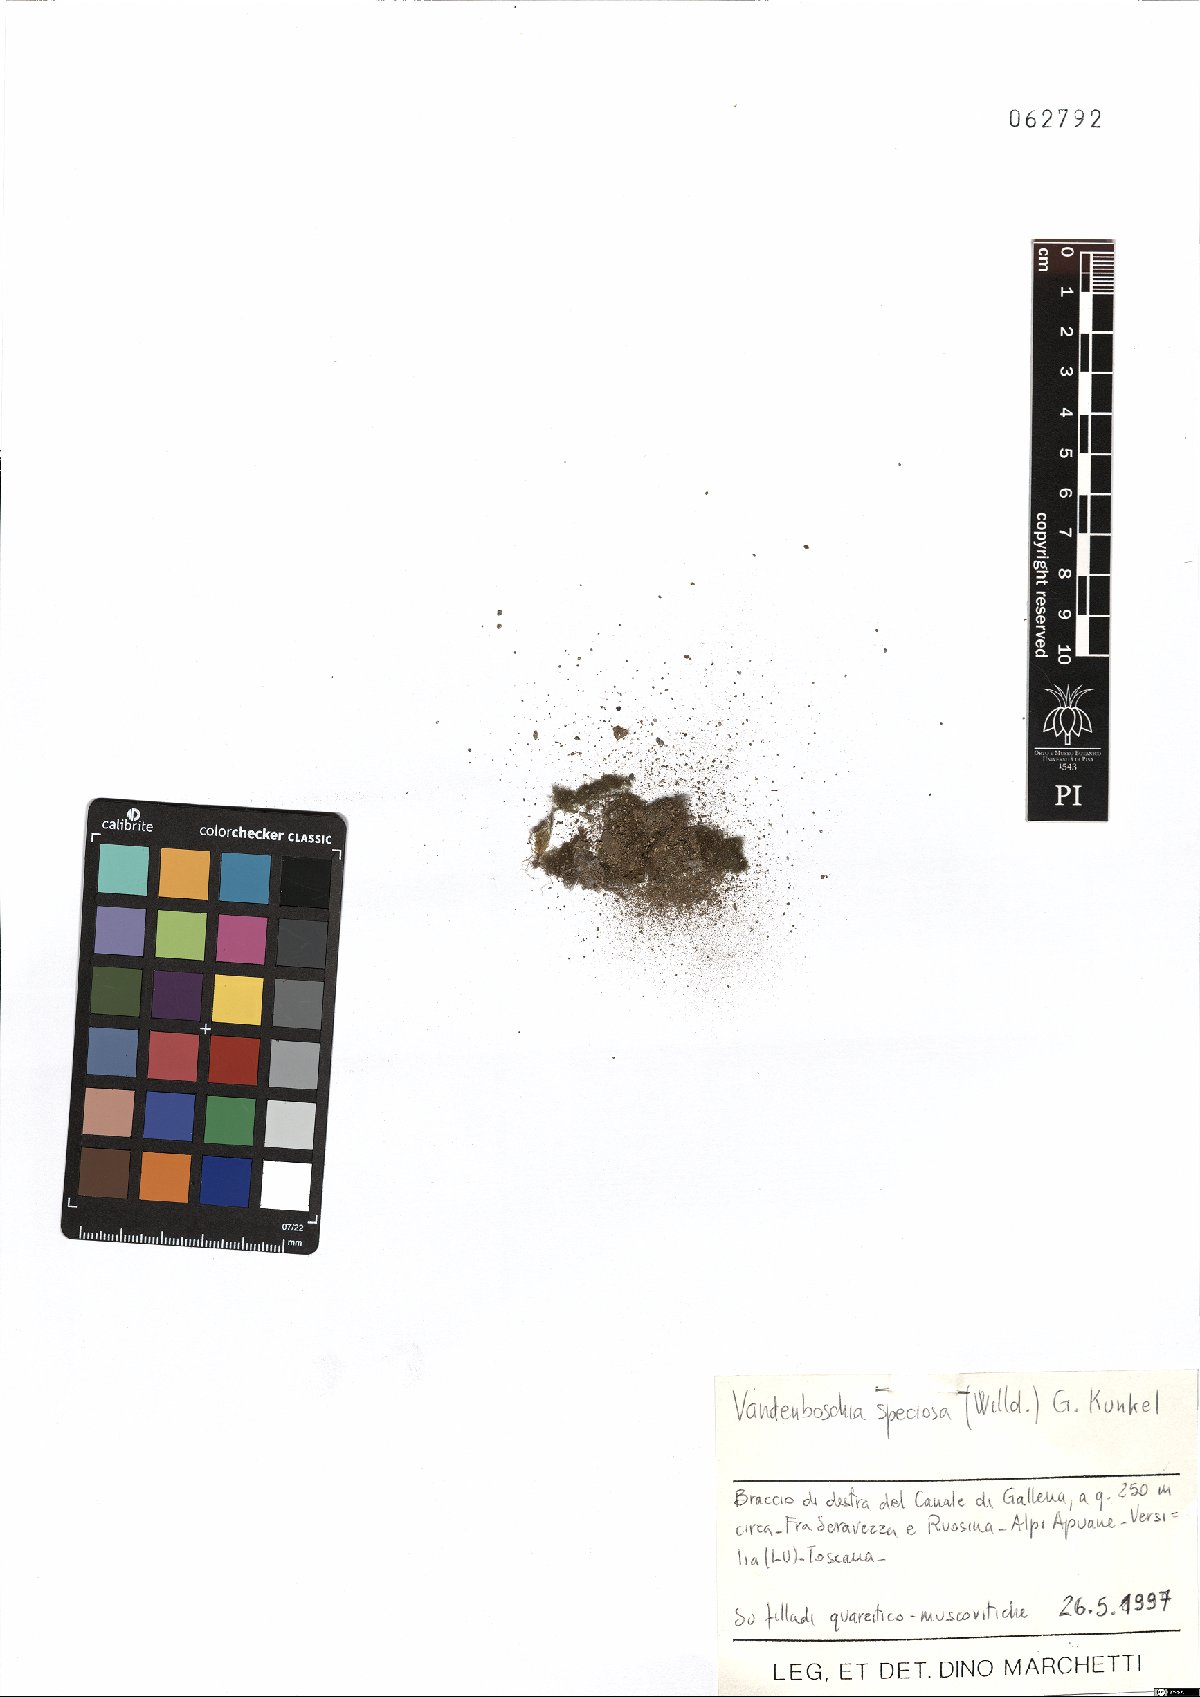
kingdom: Plantae
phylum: Tracheophyta
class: Polypodiopsida
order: Hymenophyllales
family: Hymenophyllaceae
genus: Vandenboschia
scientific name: Vandenboschia speciosa
